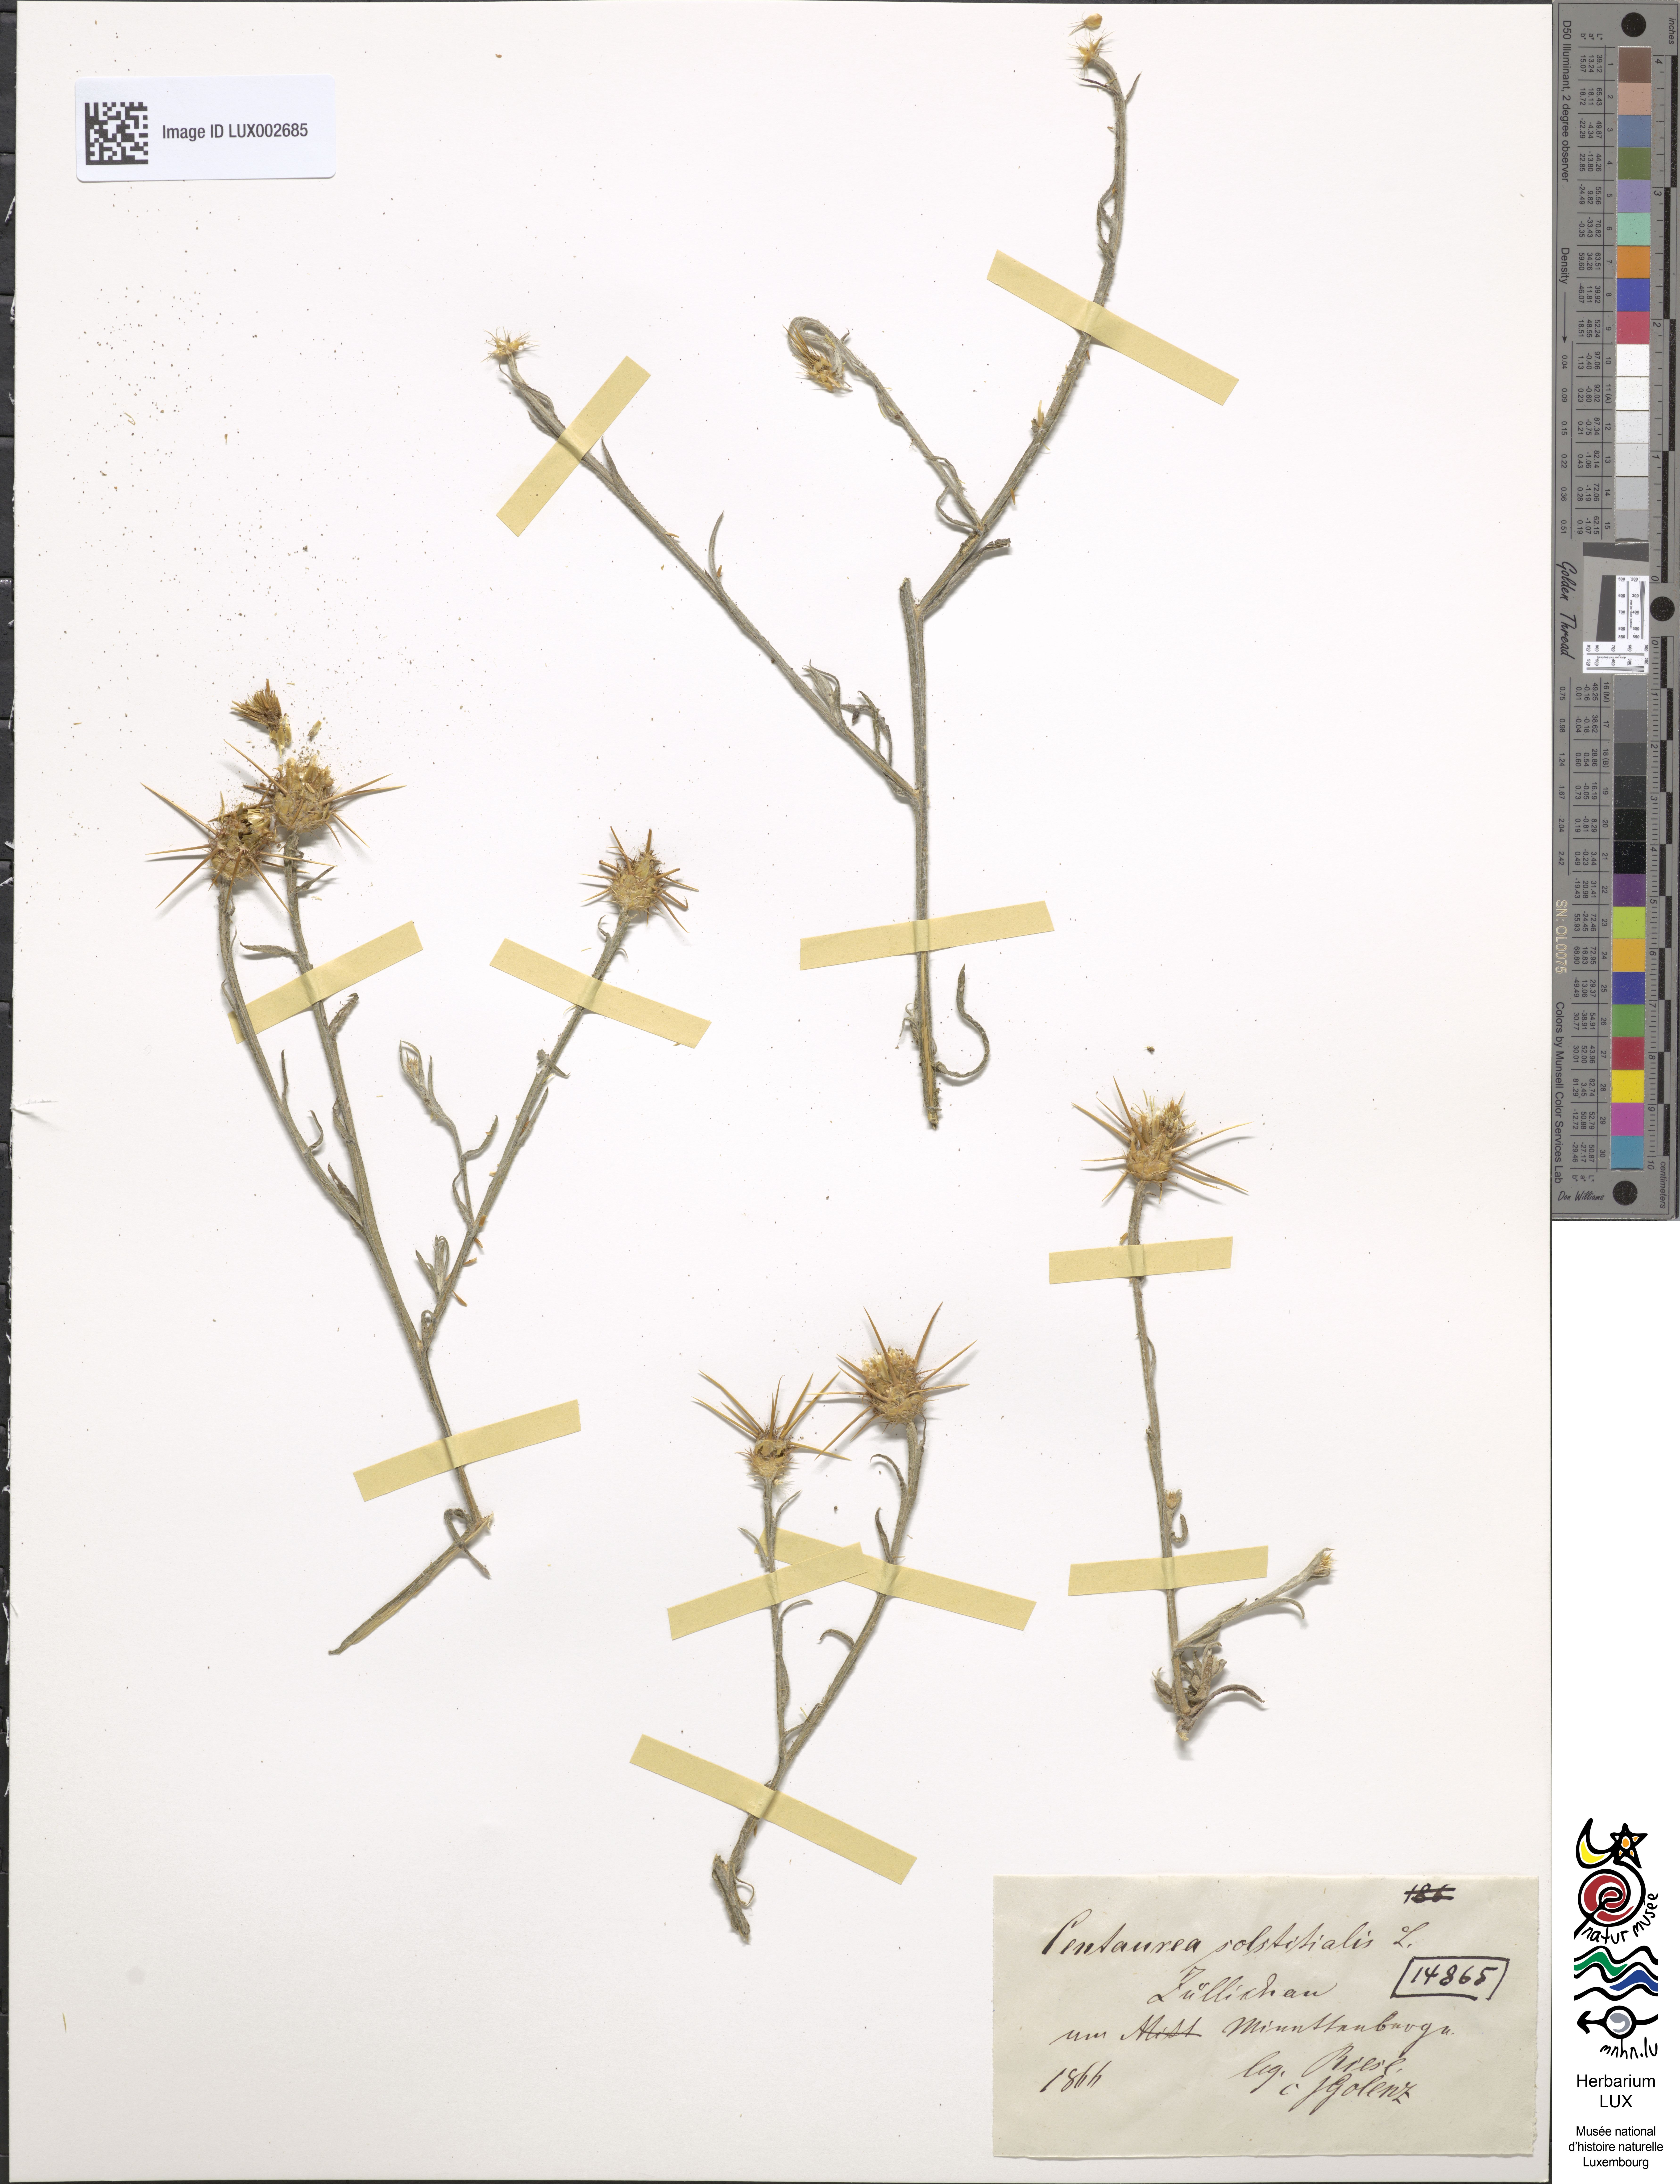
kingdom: Plantae
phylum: Tracheophyta
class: Magnoliopsida
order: Asterales
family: Asteraceae
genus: Centaurea
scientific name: Centaurea solstitialis
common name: Yellow star-thistle
